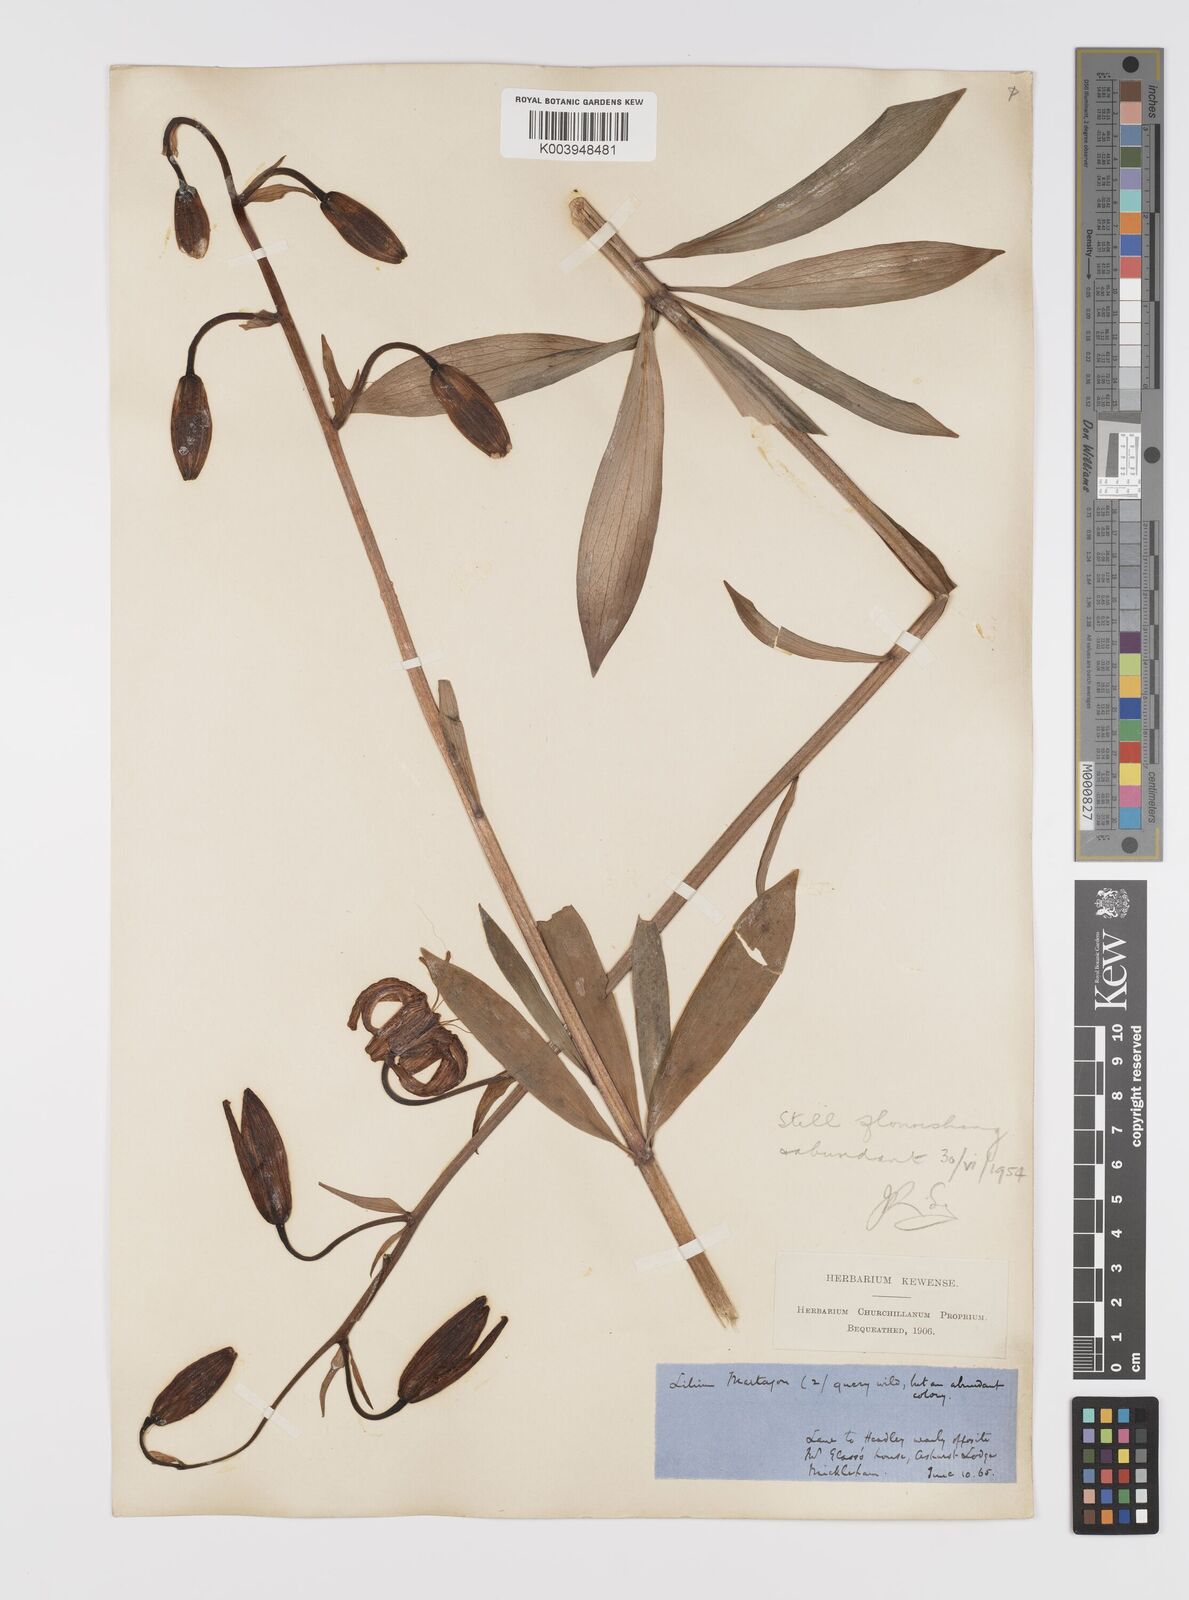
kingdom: Plantae
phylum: Tracheophyta
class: Liliopsida
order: Liliales
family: Liliaceae
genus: Lilium
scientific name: Lilium martagon
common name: Martagon lily
